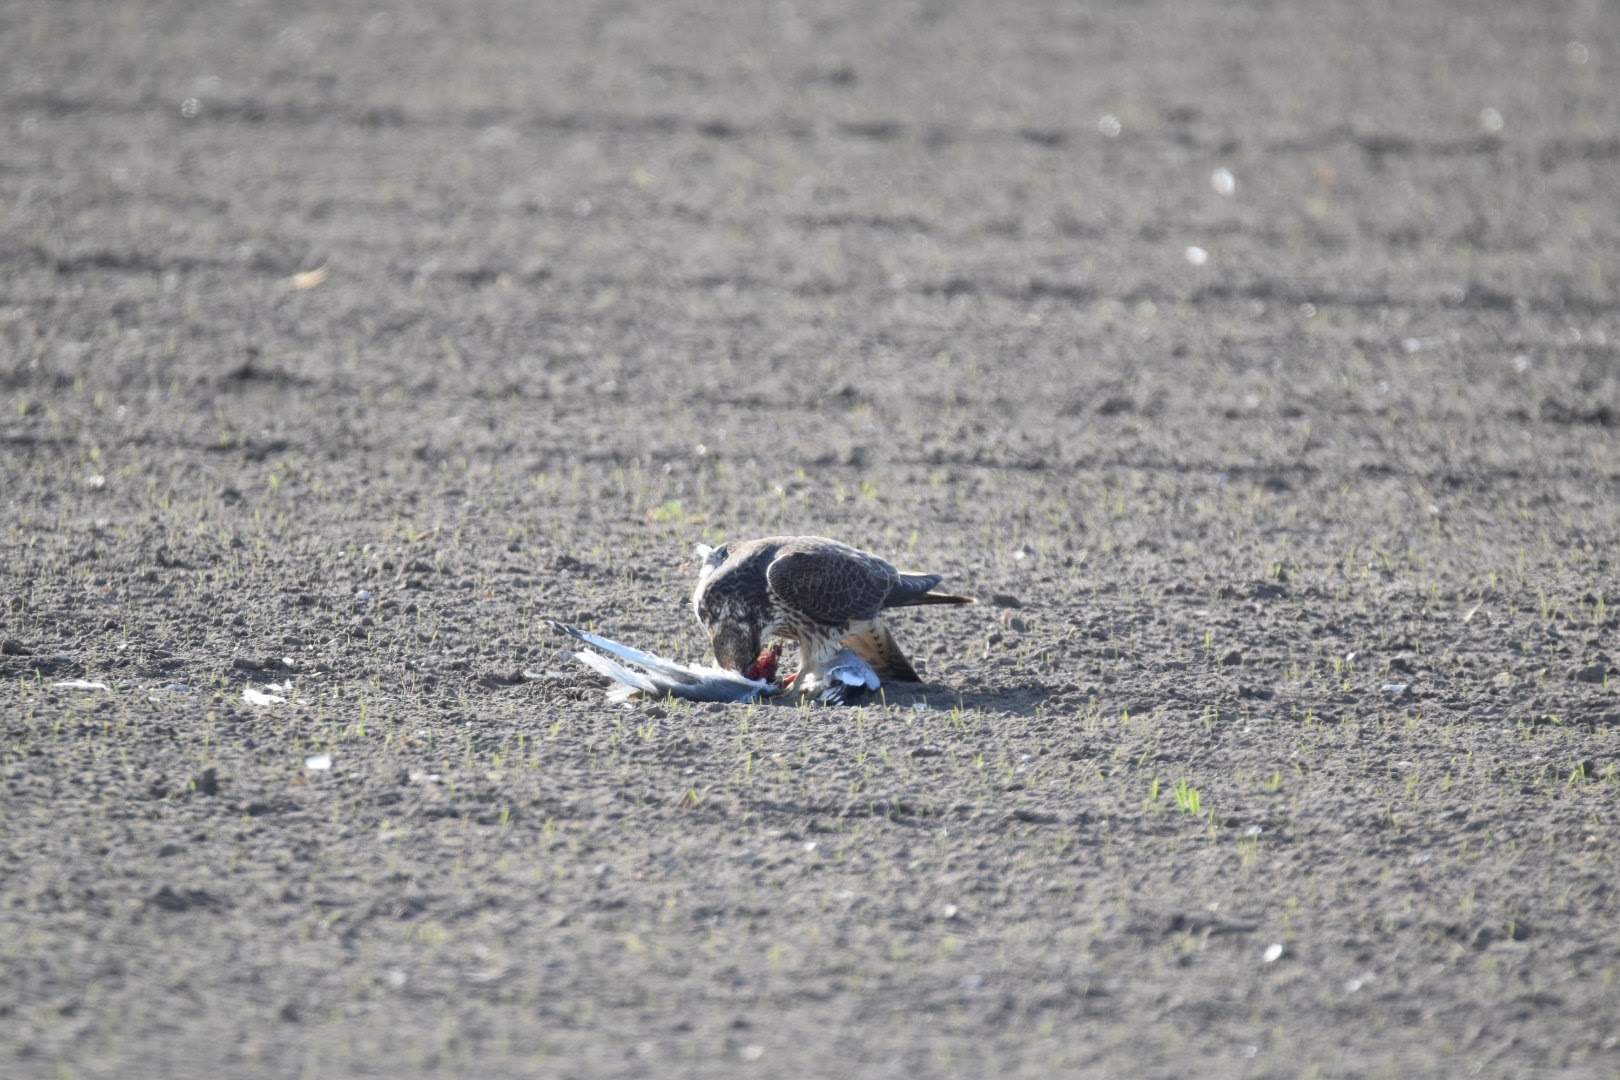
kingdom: Animalia
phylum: Chordata
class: Aves
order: Falconiformes
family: Falconidae
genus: Falco
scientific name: Falco peregrinus
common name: Vandrefalk
